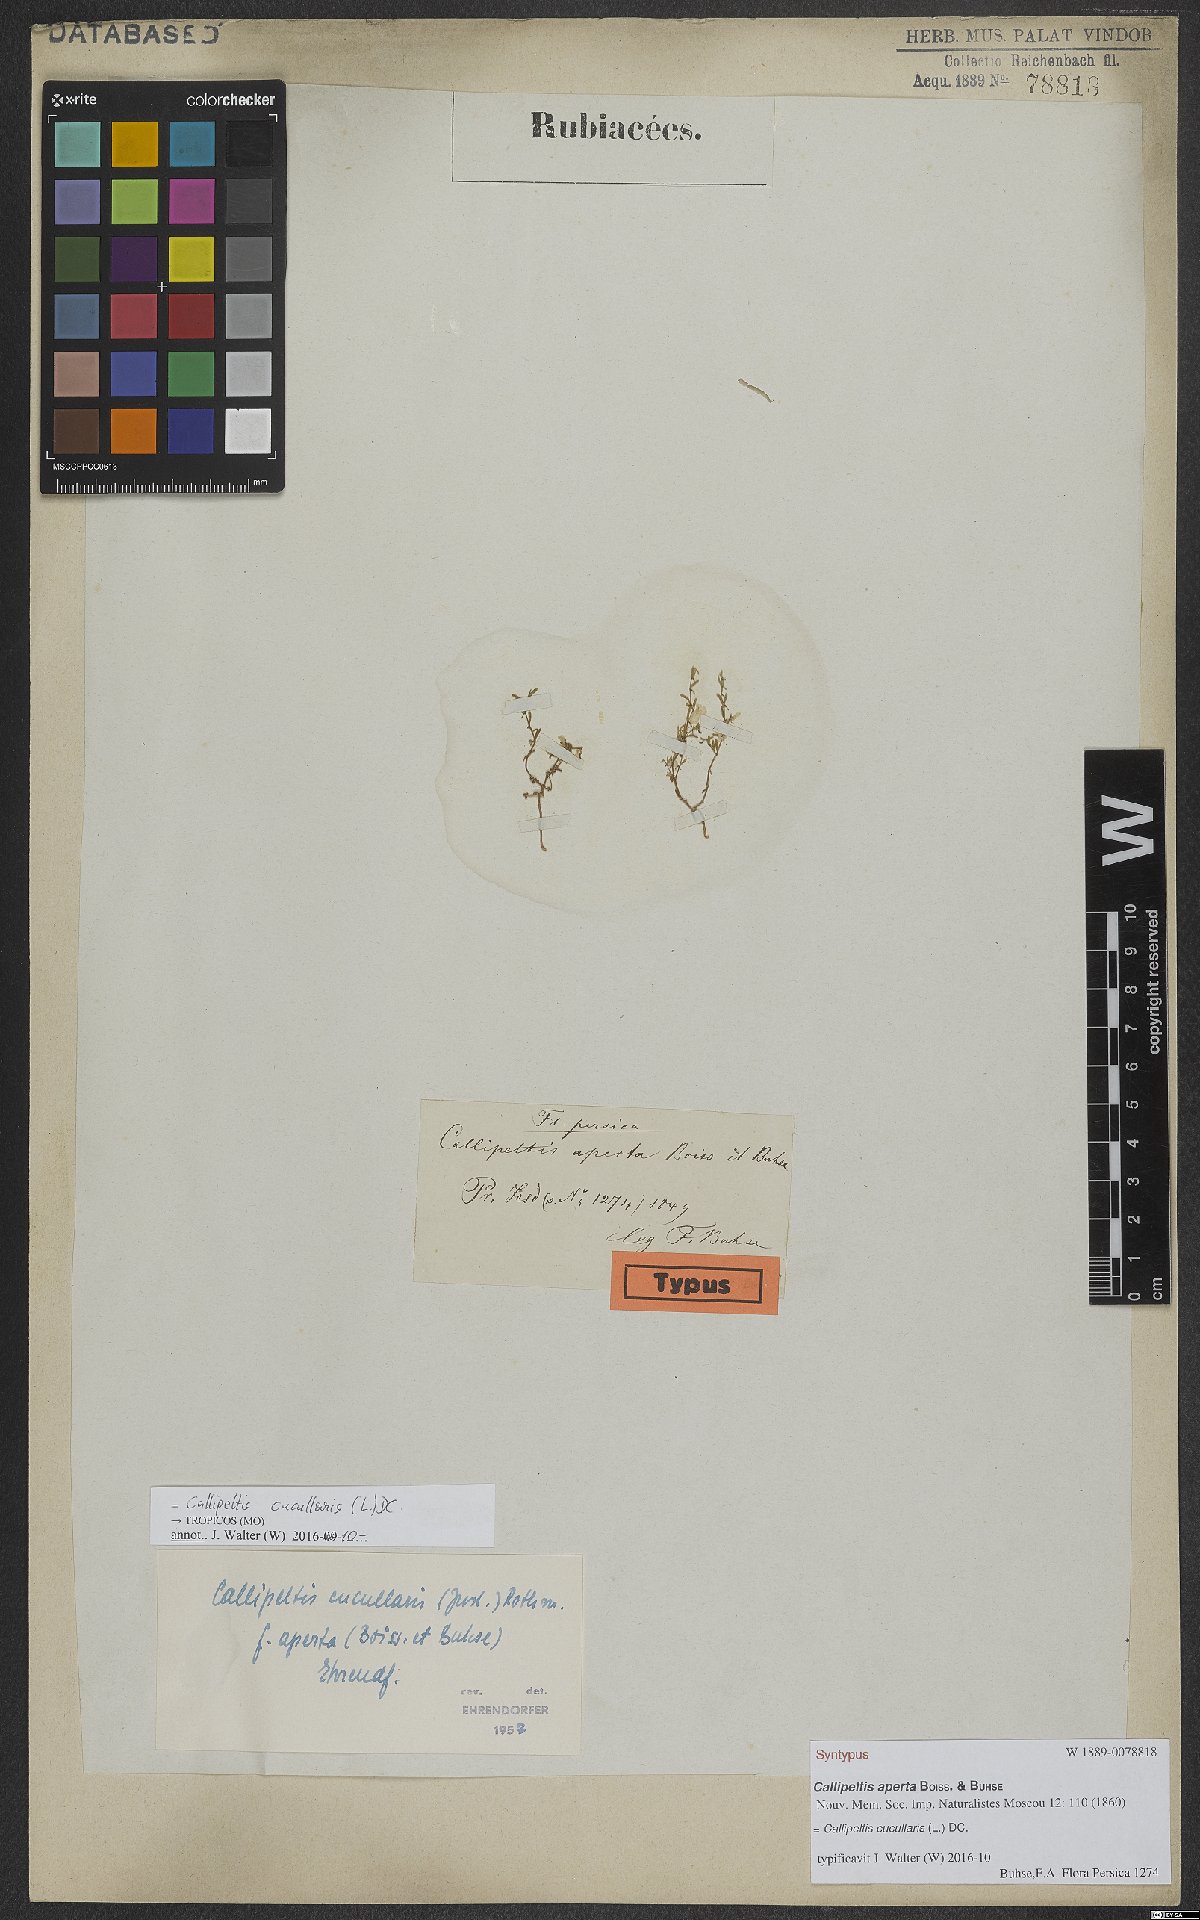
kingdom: Plantae
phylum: Tracheophyta
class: Magnoliopsida
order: Gentianales
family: Rubiaceae
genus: Callipeltis
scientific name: Callipeltis cucullaris
